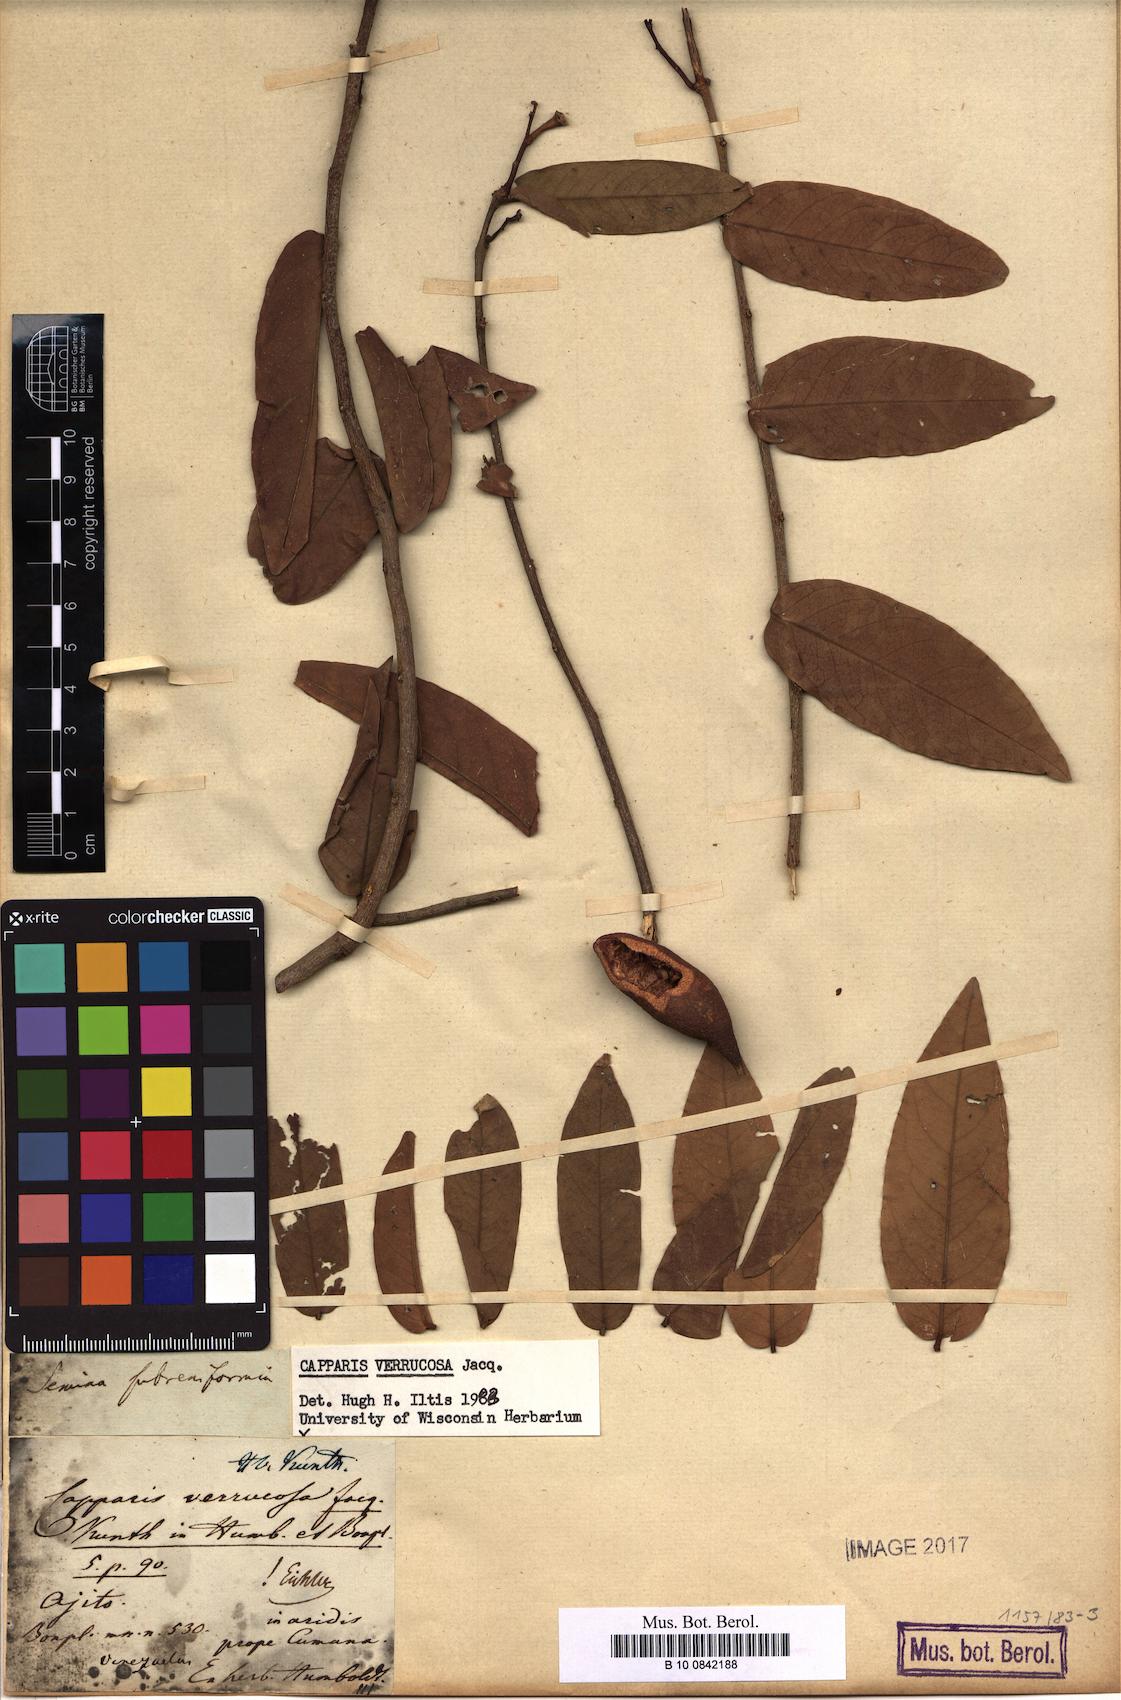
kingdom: Plantae
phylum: Tracheophyta
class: Magnoliopsida
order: Brassicales
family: Capparaceae
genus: Cynophalla
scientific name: Cynophalla verrucosa
